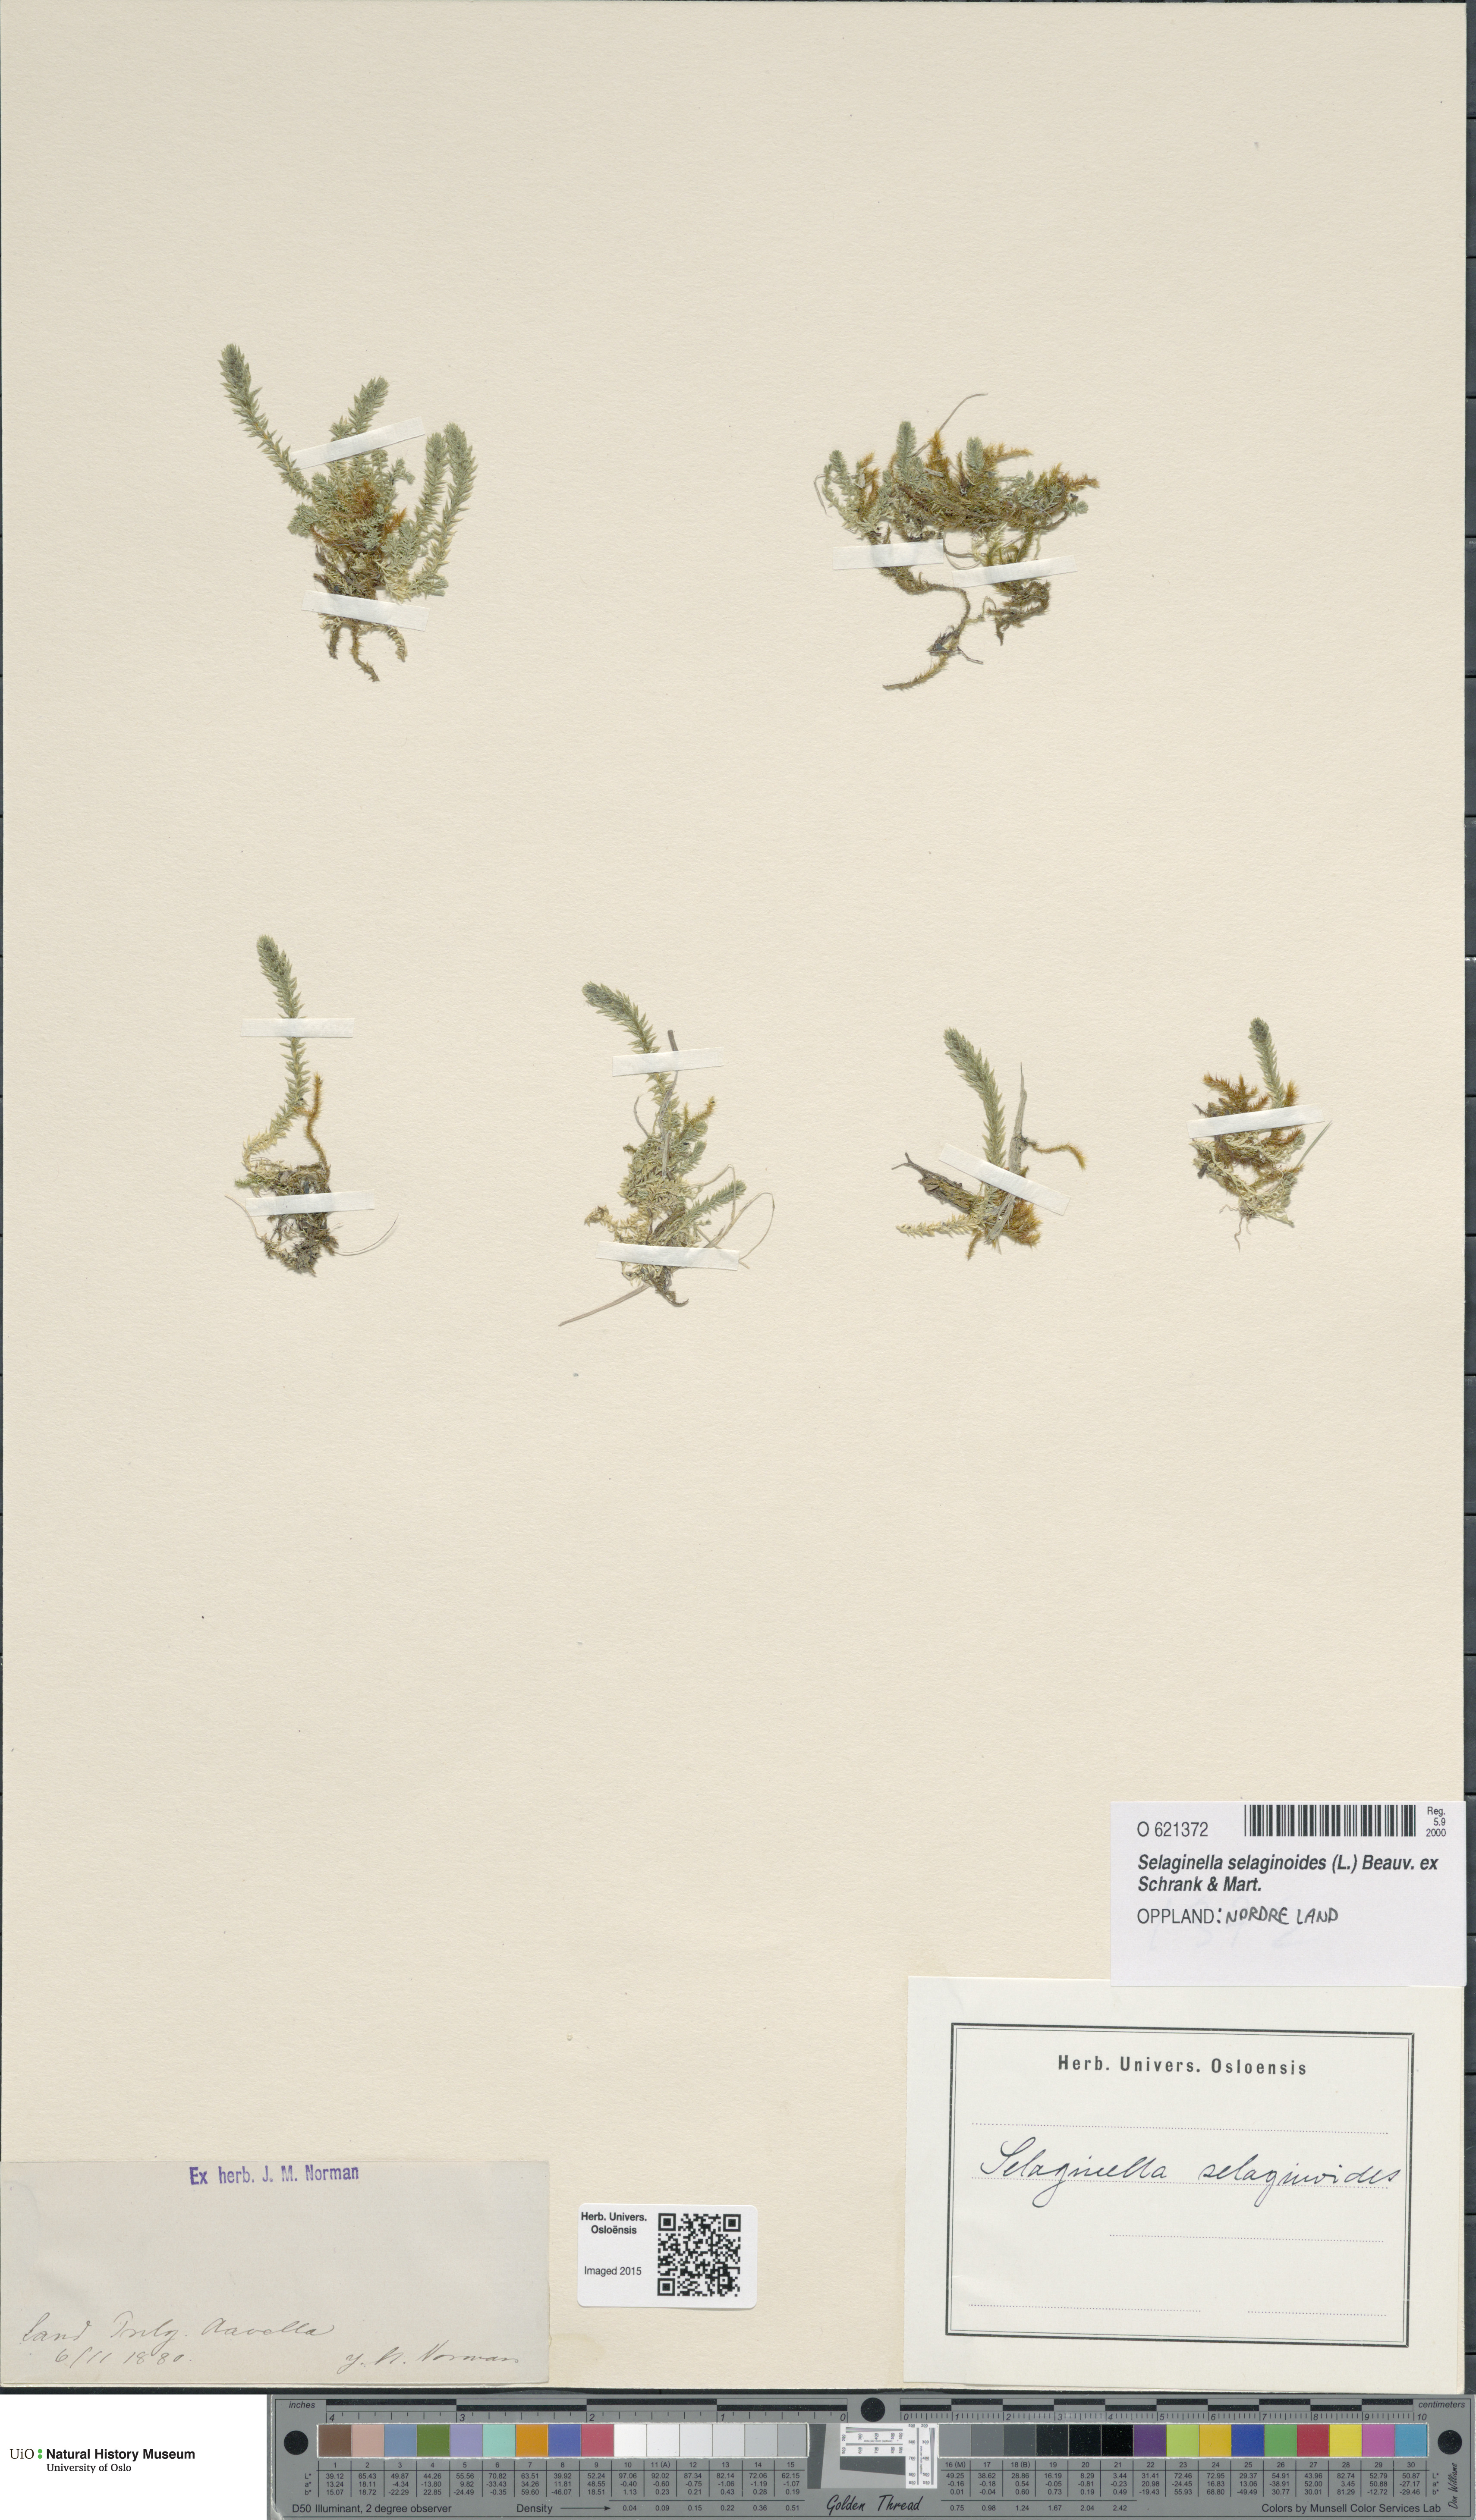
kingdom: Plantae
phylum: Tracheophyta
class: Lycopodiopsida
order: Selaginellales
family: Selaginellaceae
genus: Selaginella
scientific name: Selaginella selaginoides
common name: Prickly mountain-moss
